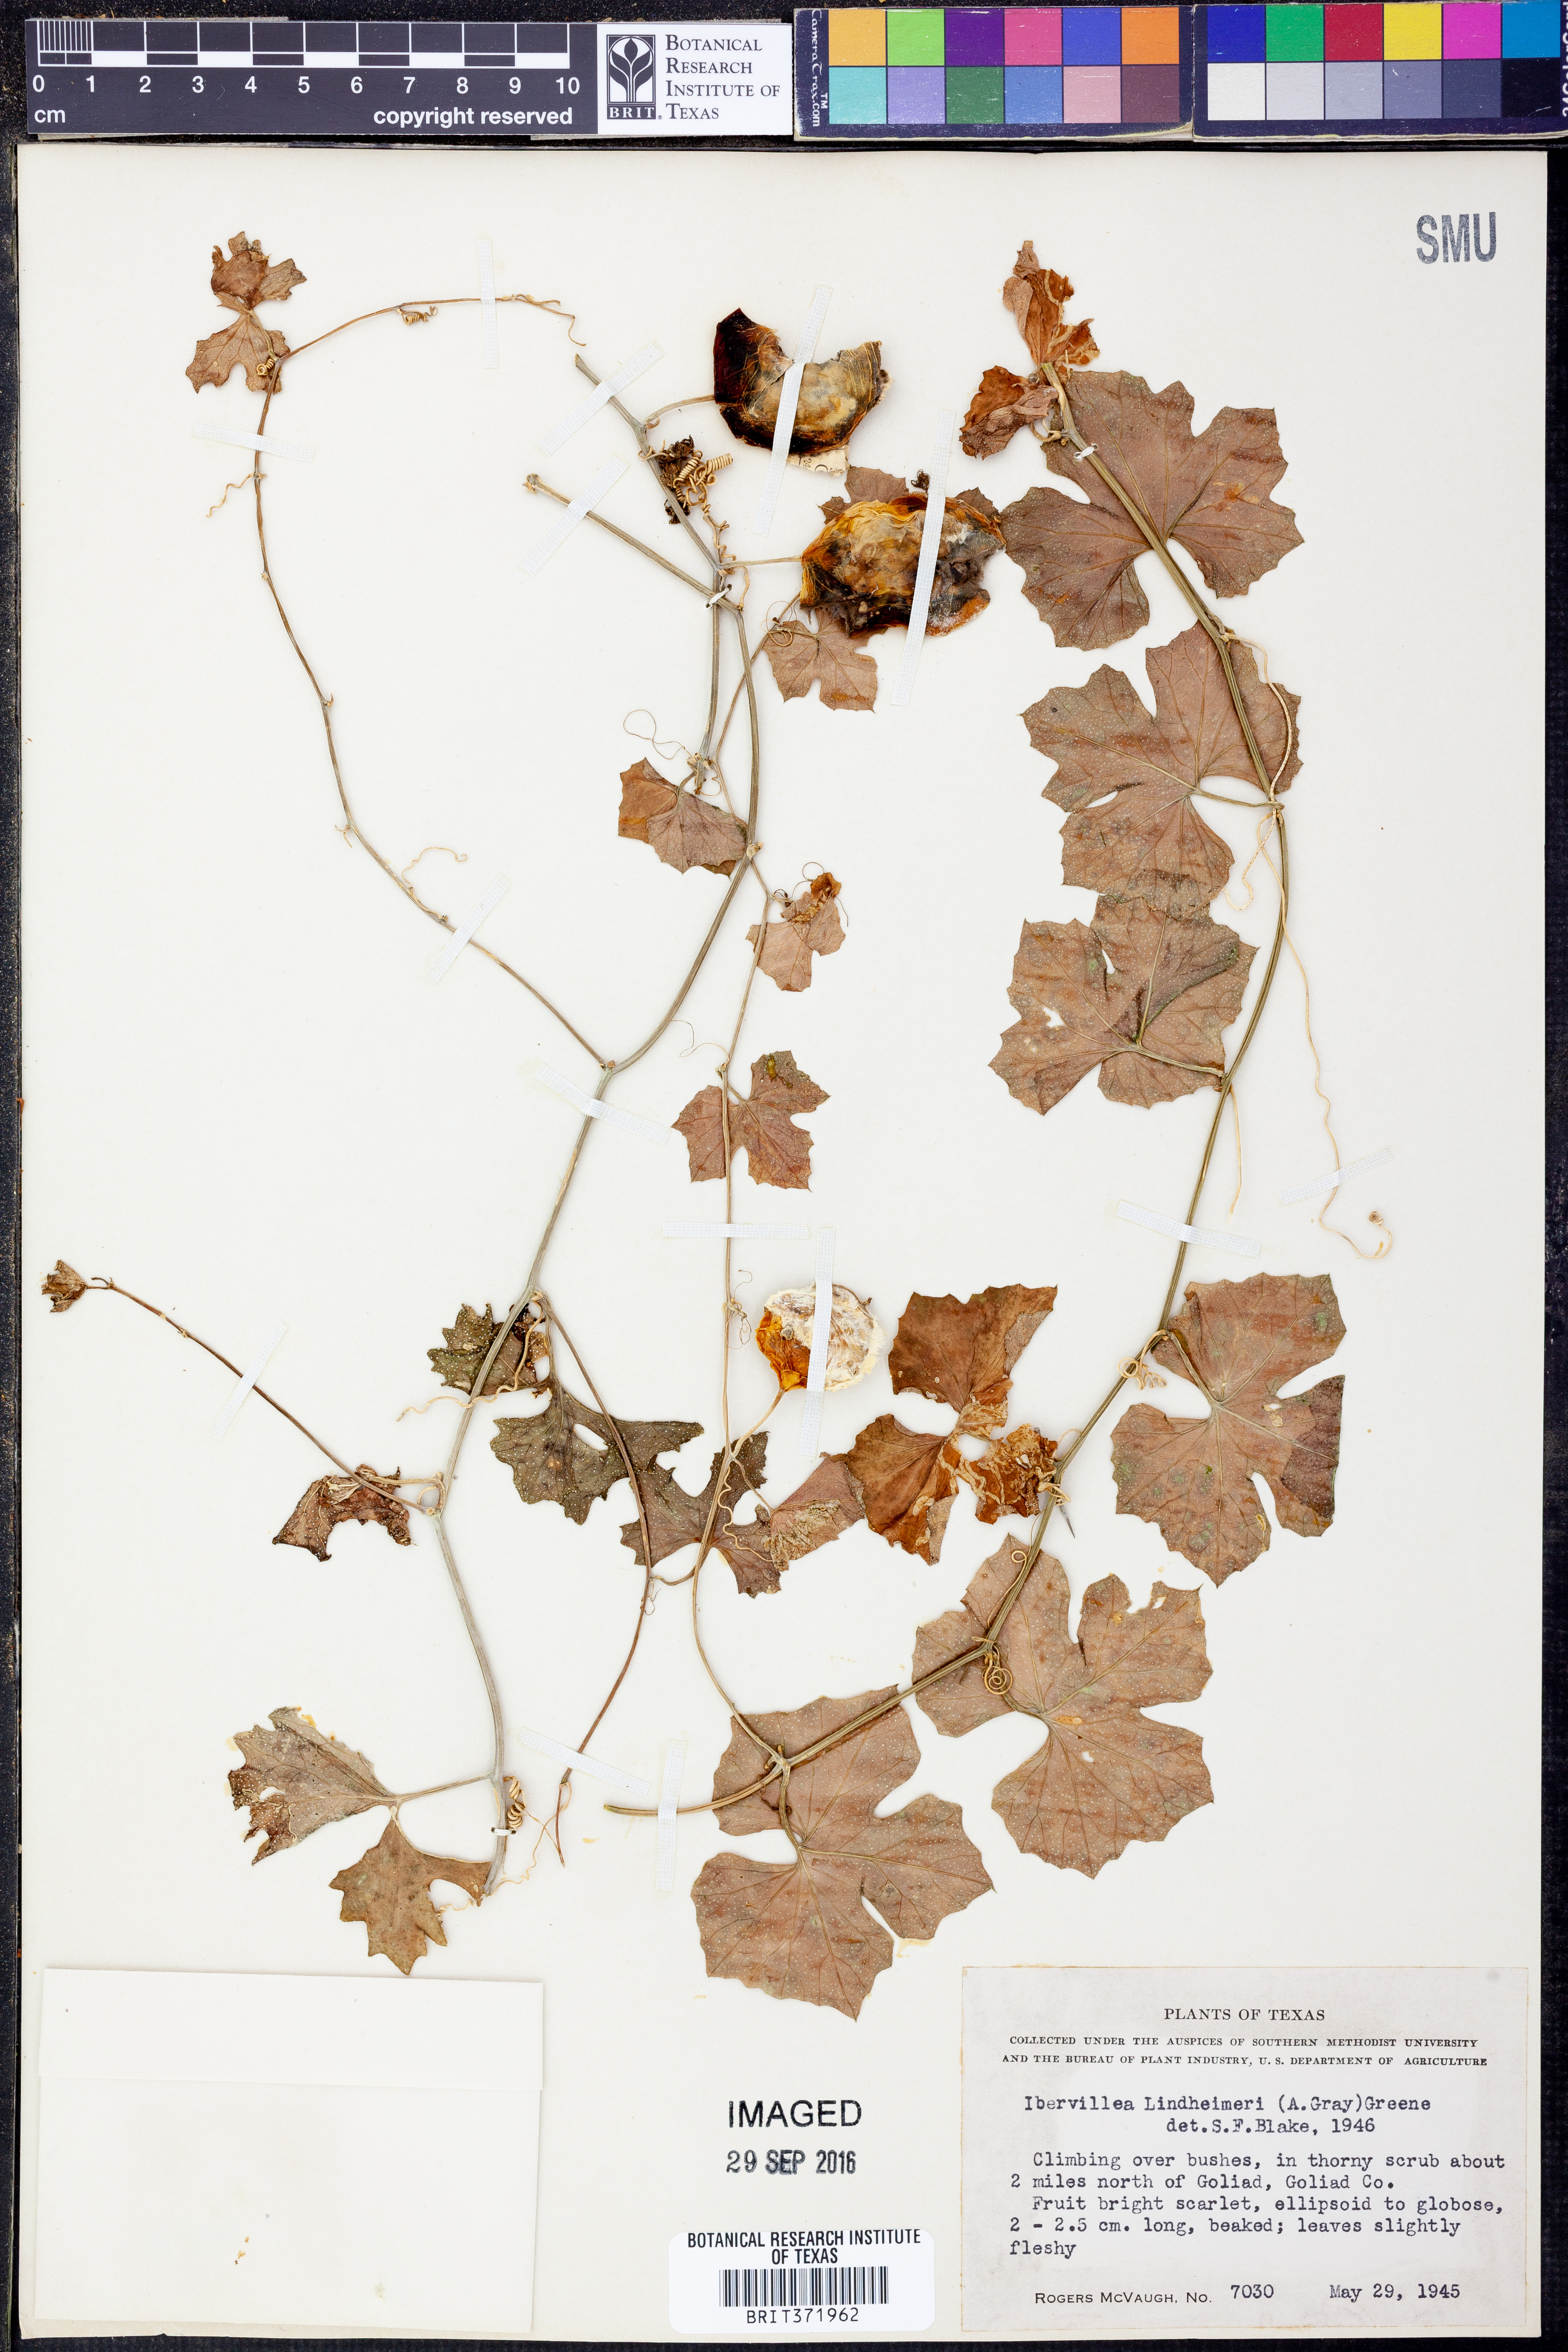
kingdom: Plantae
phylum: Tracheophyta
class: Magnoliopsida
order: Cucurbitales
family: Cucurbitaceae
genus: Ibervillea
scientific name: Ibervillea lindheimeri
